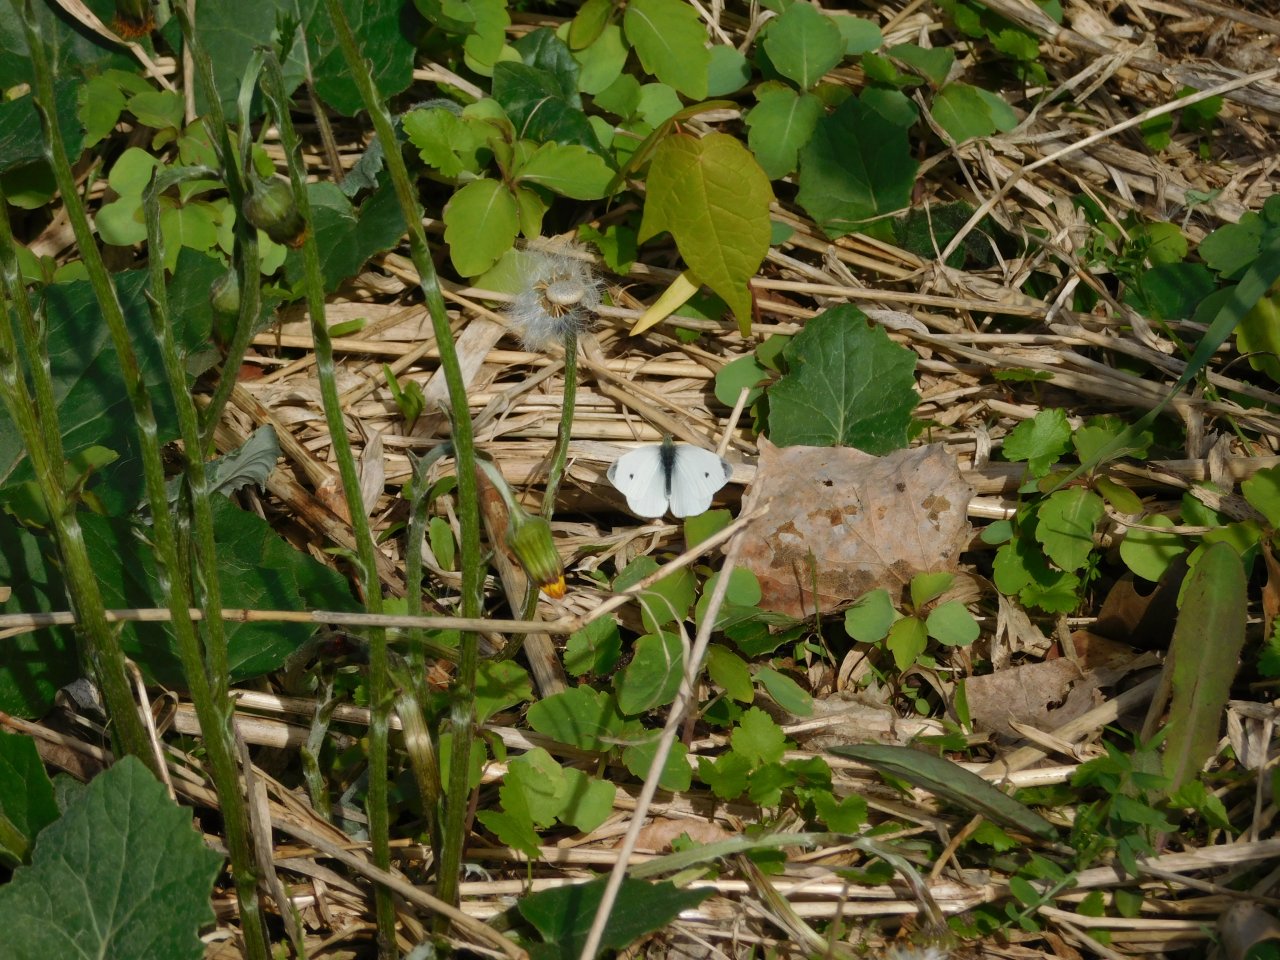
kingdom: Animalia
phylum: Arthropoda
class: Insecta
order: Lepidoptera
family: Pieridae
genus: Pieris
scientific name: Pieris rapae
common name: Cabbage White
